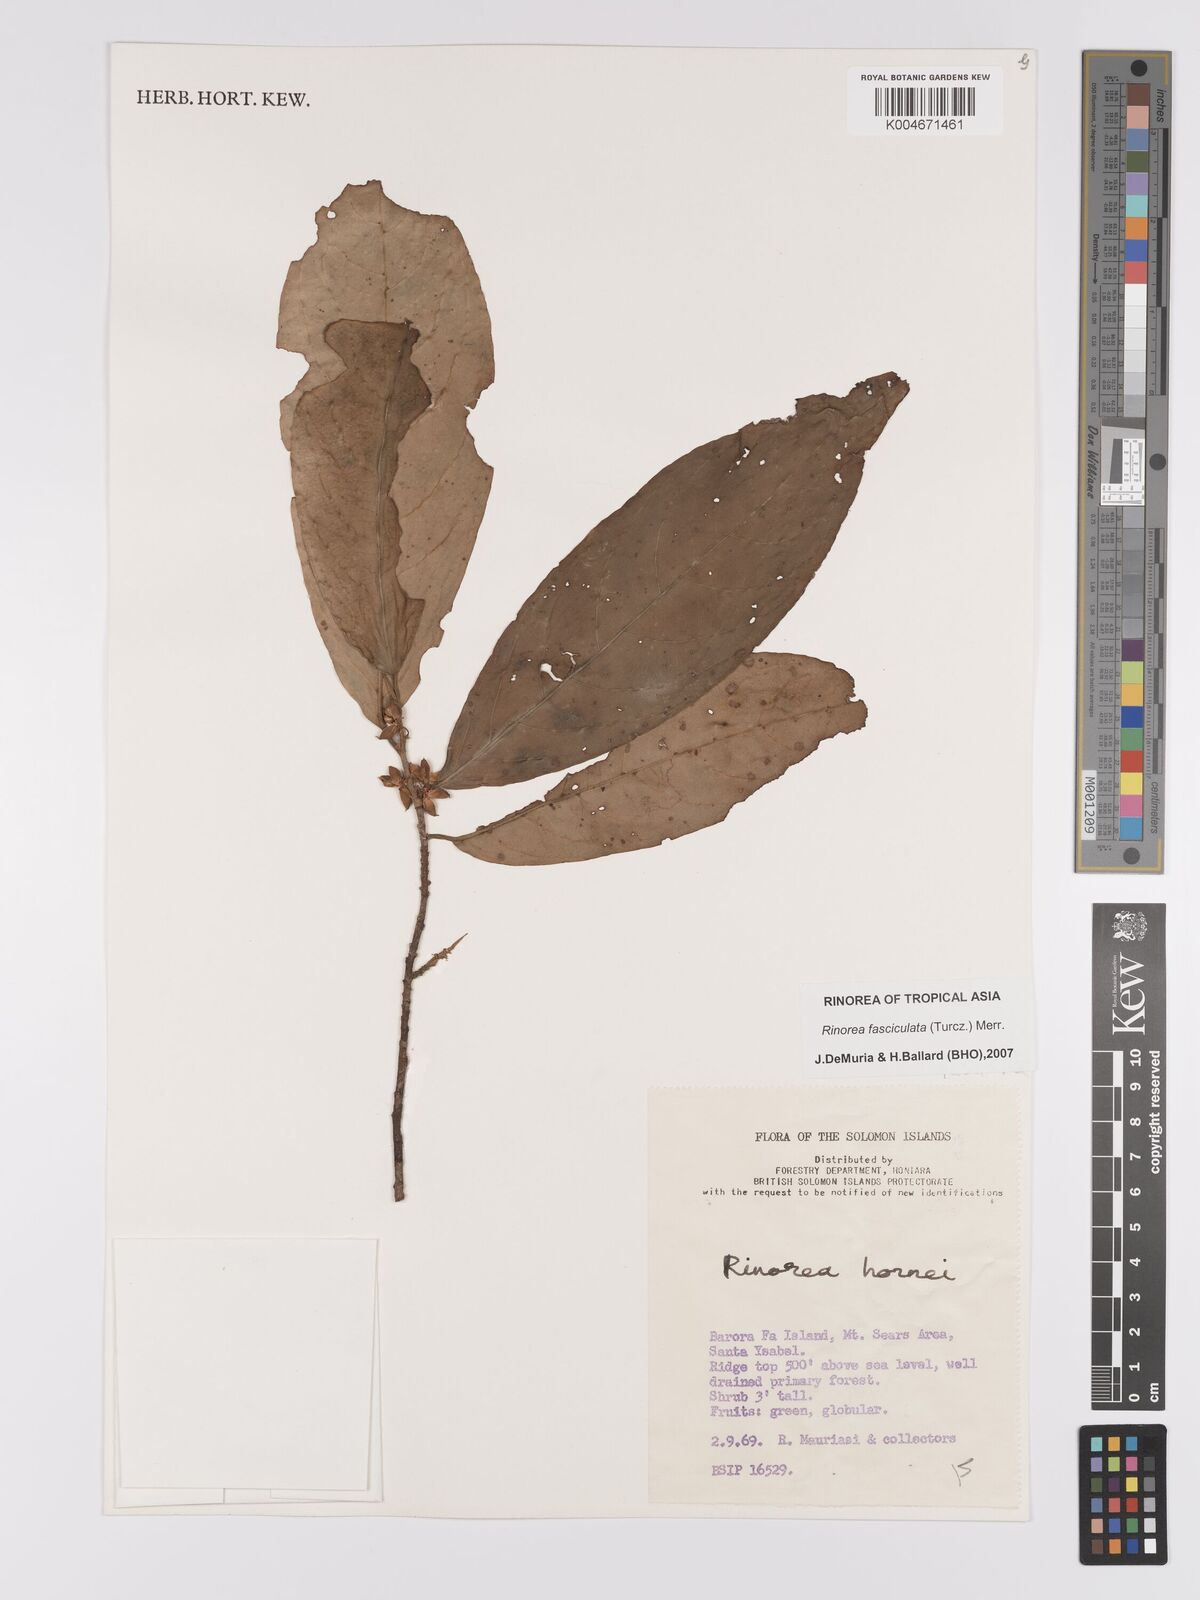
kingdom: Plantae
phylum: Tracheophyta
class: Magnoliopsida
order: Malpighiales
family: Violaceae
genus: Rinorea
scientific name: Rinorea bengalensis
